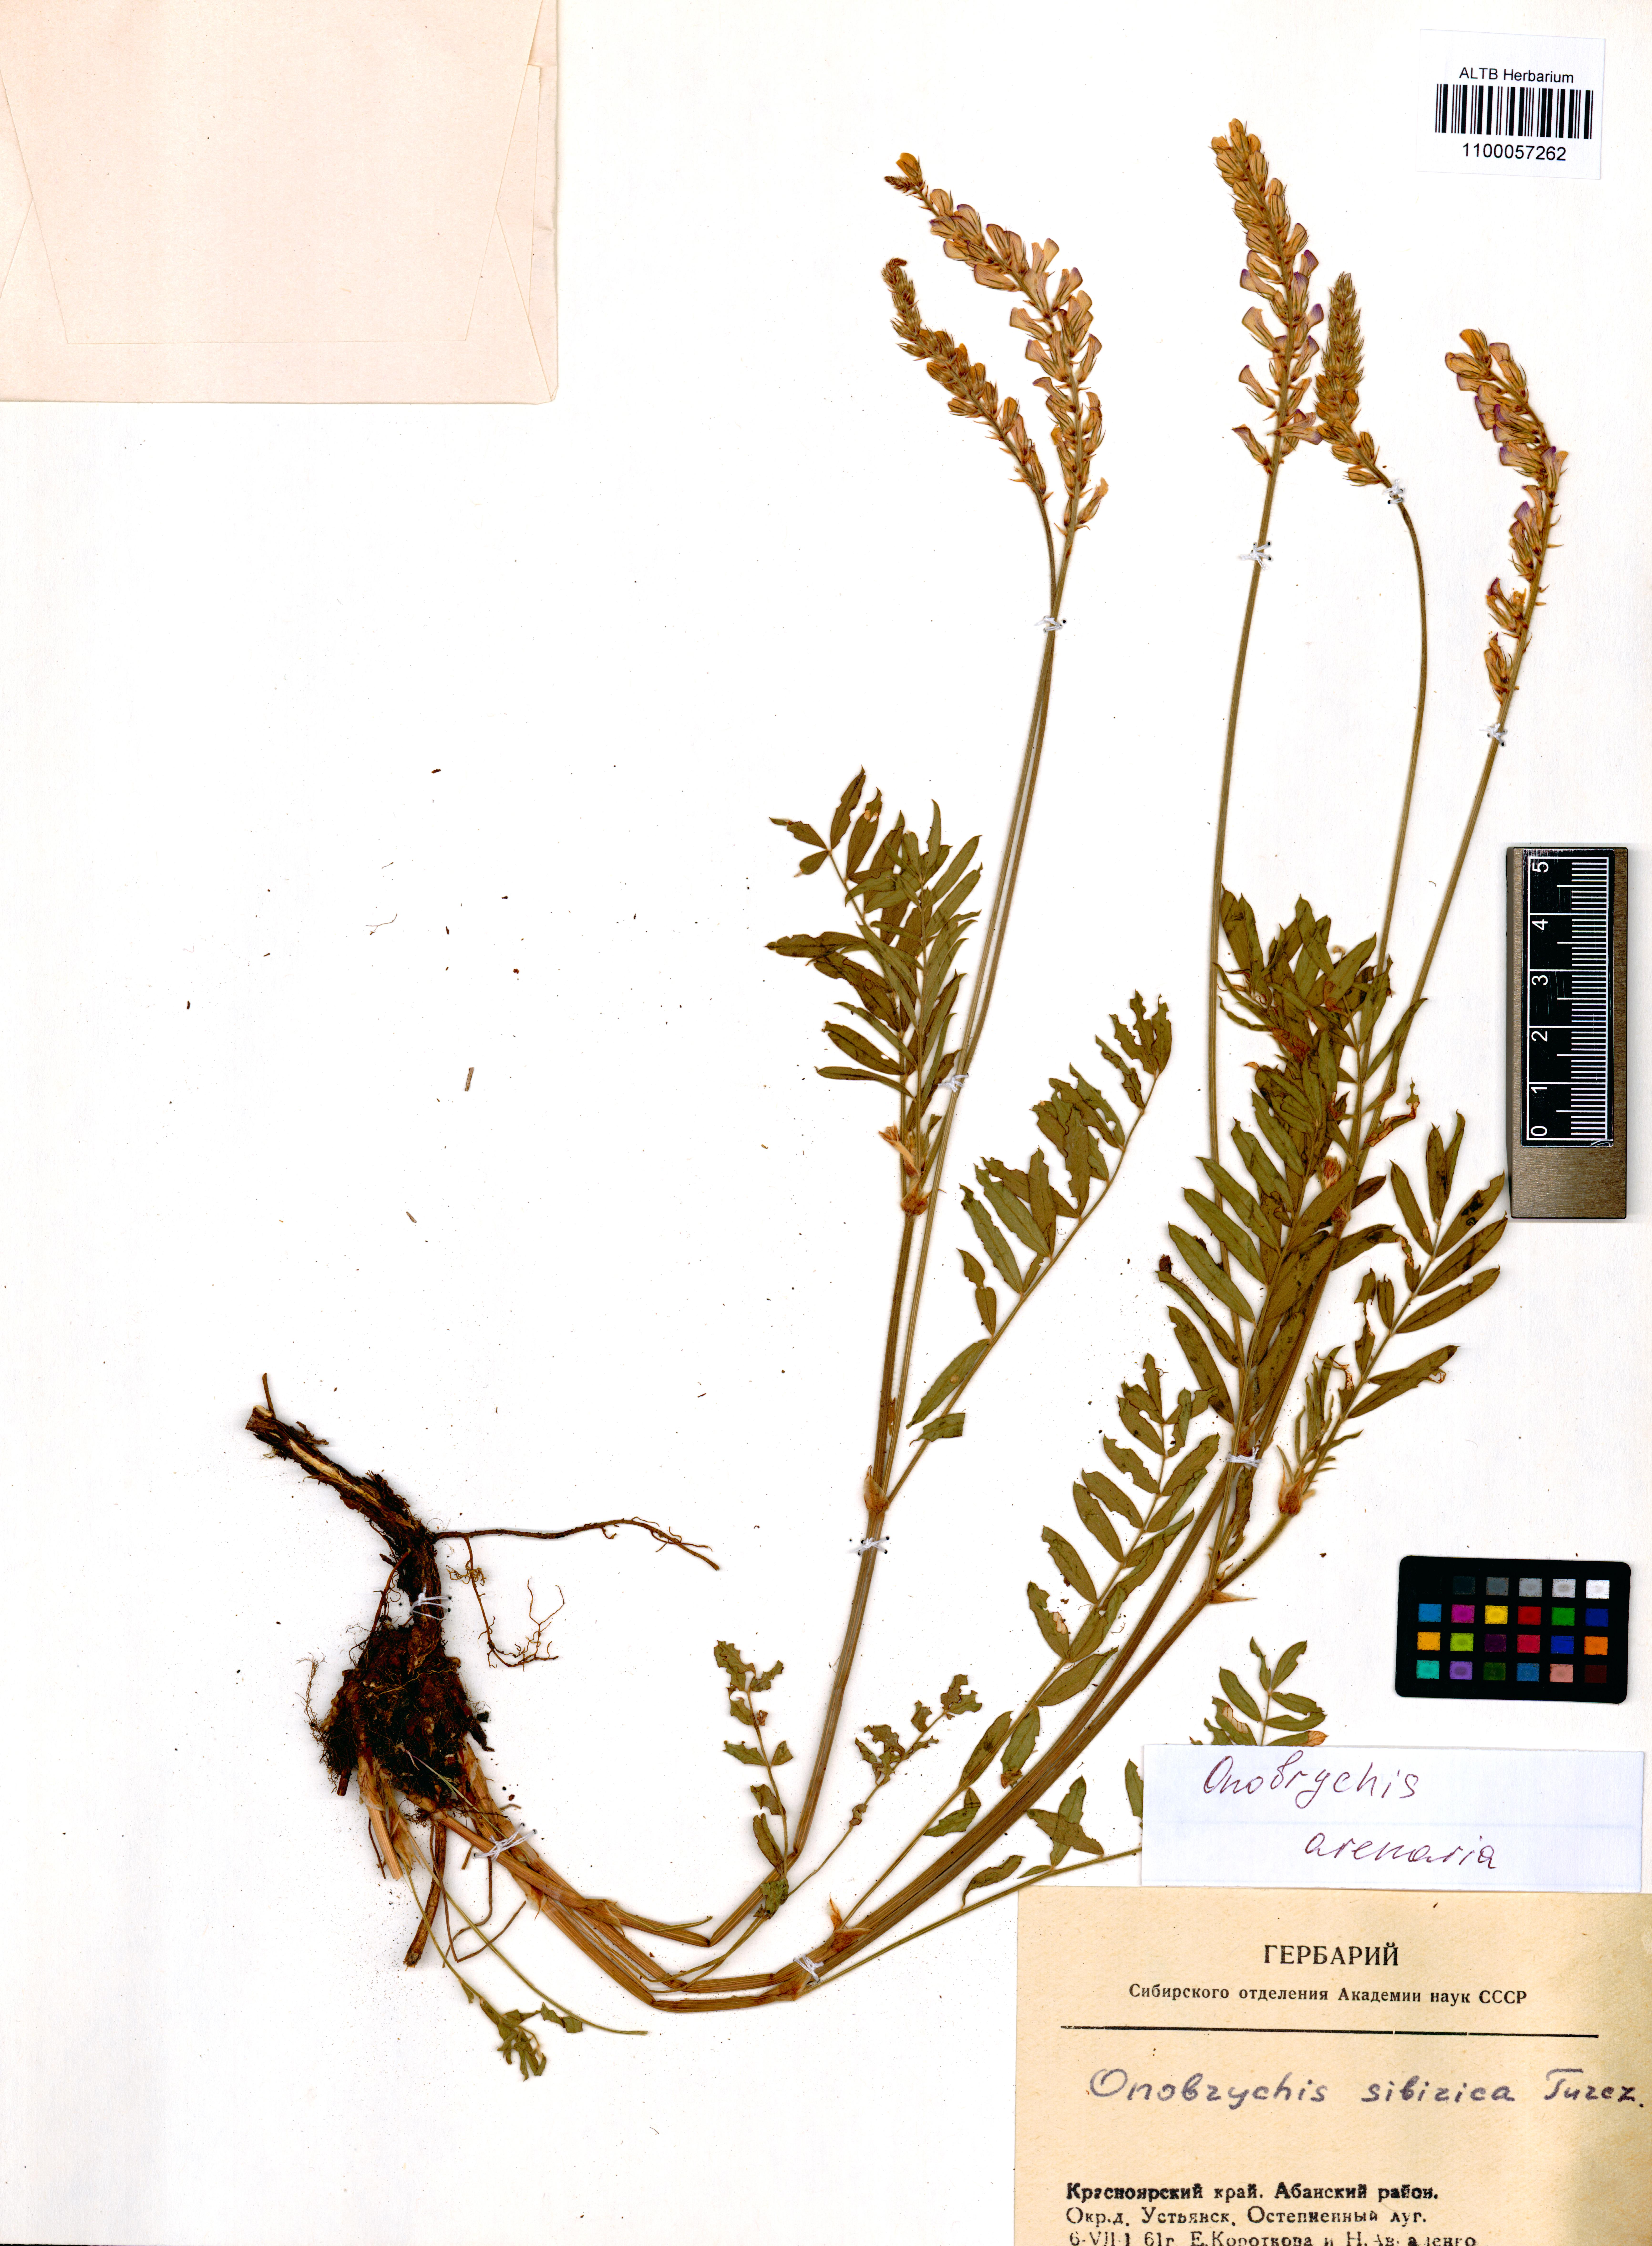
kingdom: Plantae
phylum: Tracheophyta
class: Magnoliopsida
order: Fabales
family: Fabaceae
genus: Onobrychis
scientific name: Onobrychis arenaria
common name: Sand esparcet
